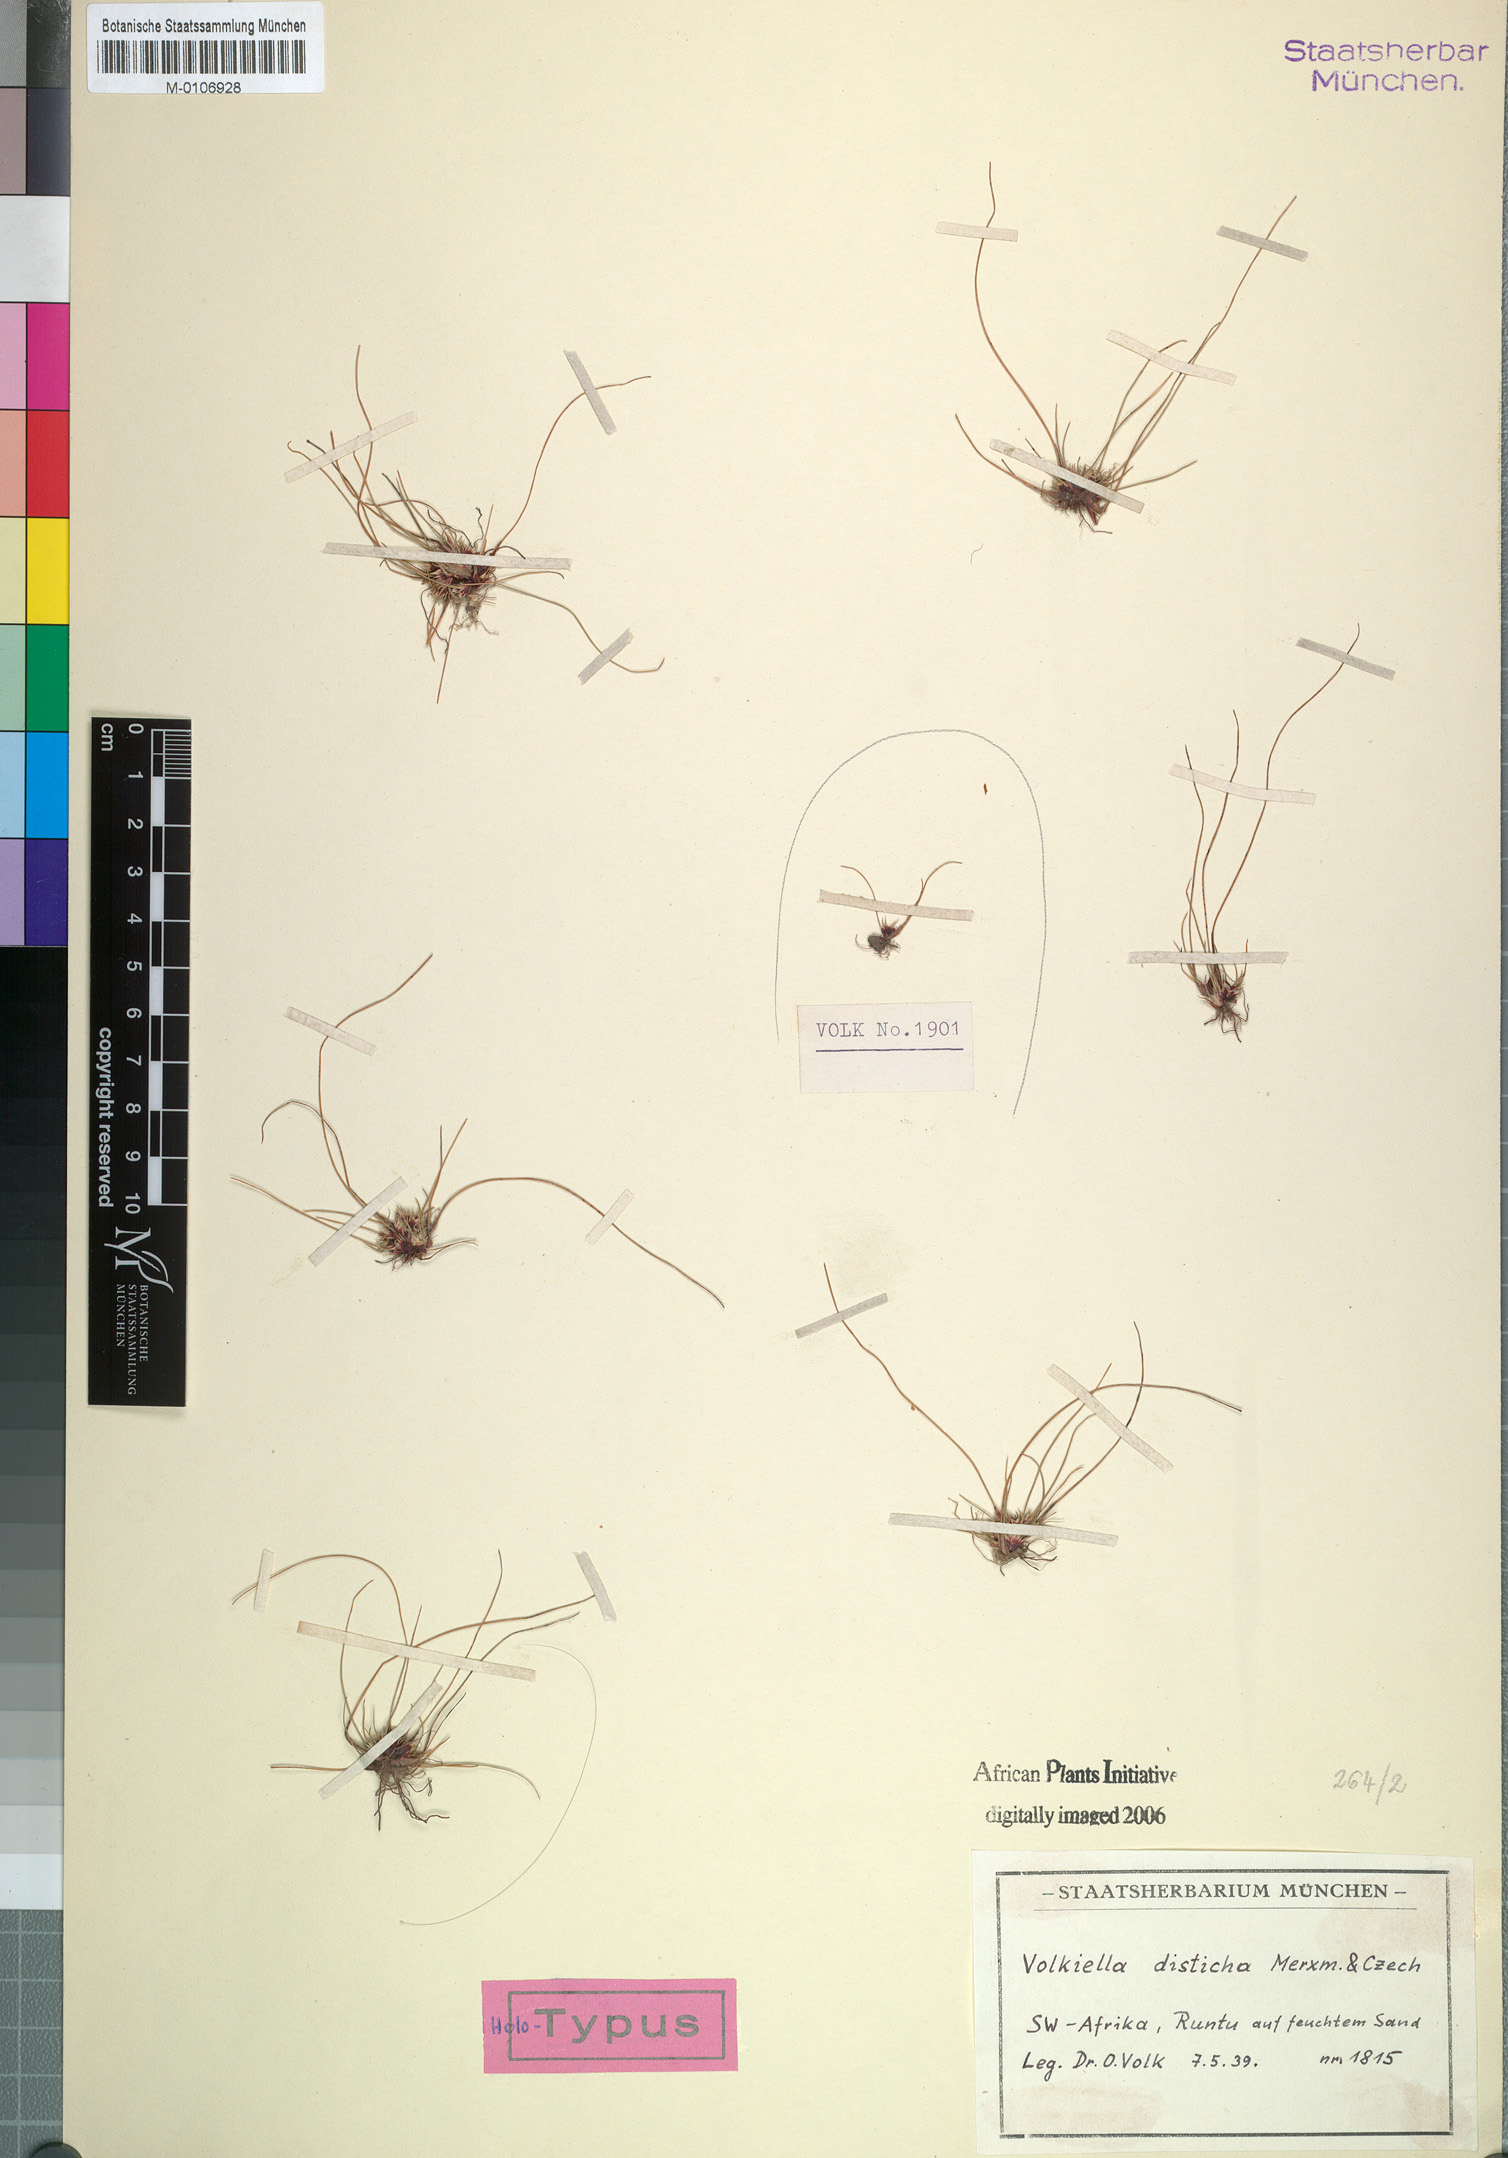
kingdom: Plantae
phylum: Tracheophyta
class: Liliopsida
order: Poales
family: Cyperaceae
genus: Cyperus
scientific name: Cyperus distichus
